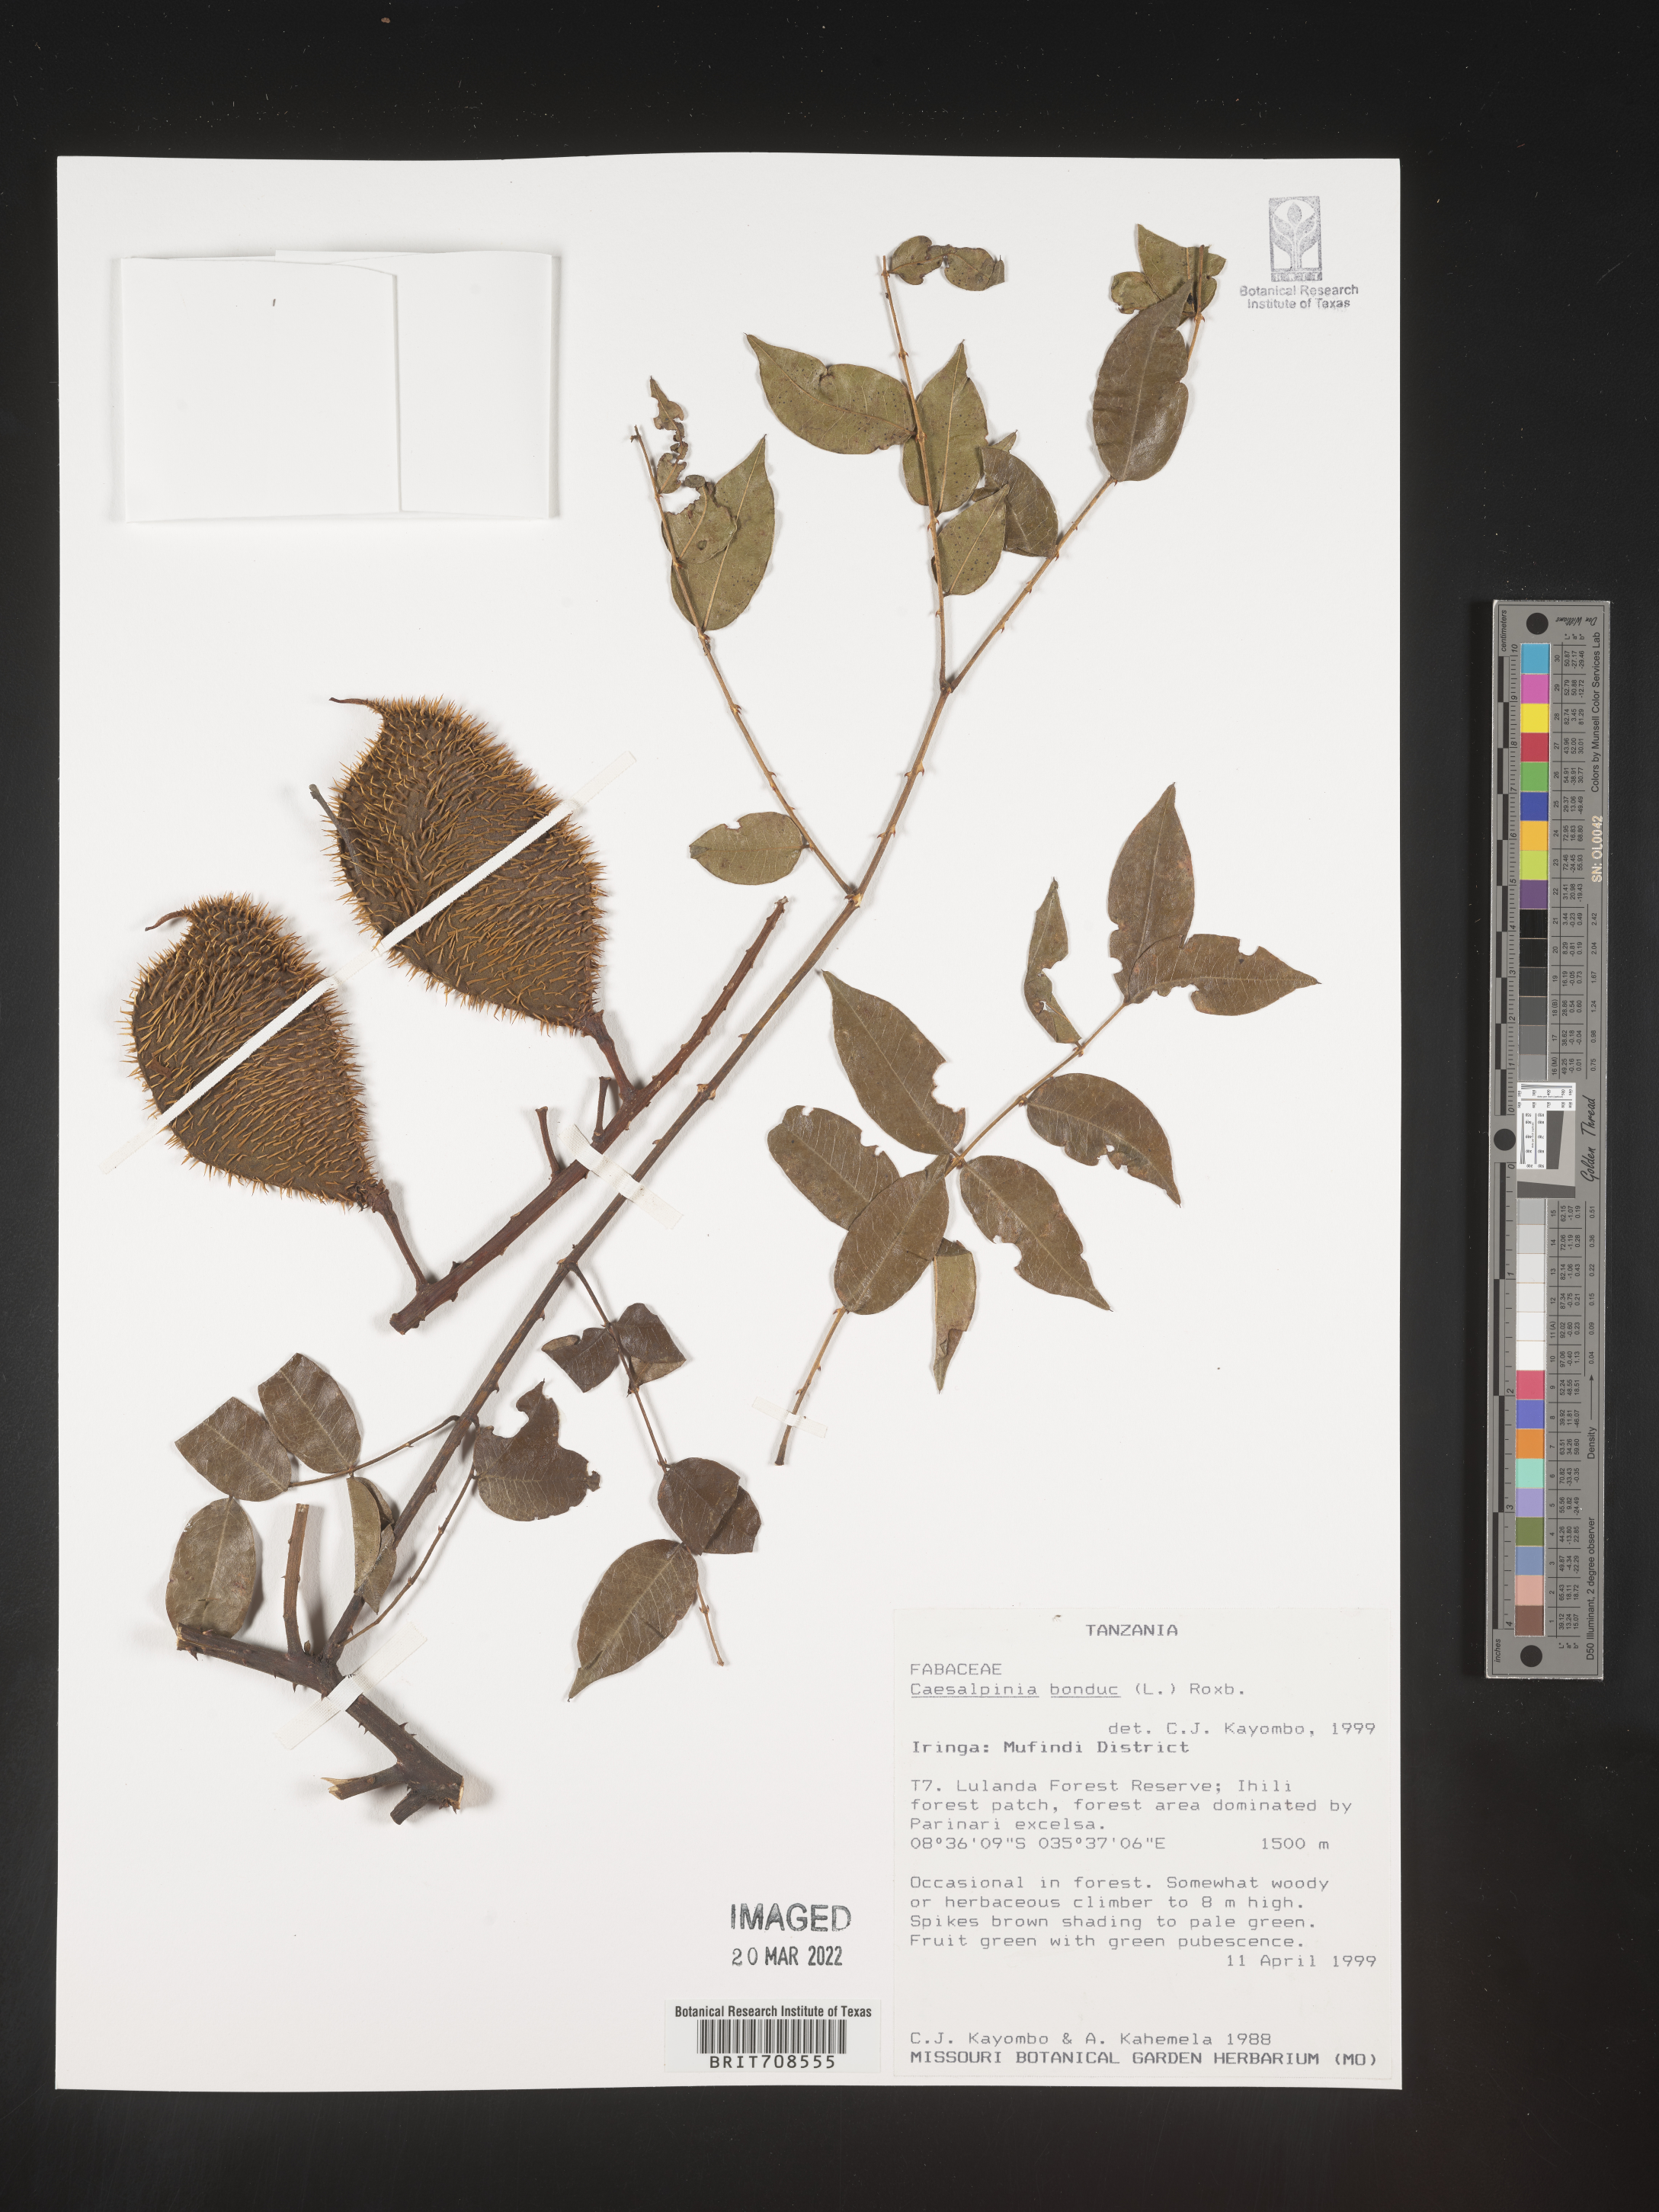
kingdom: Plantae
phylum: Tracheophyta
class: Magnoliopsida
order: Fabales
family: Fabaceae
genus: Caesalpinia
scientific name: Caesalpinia
